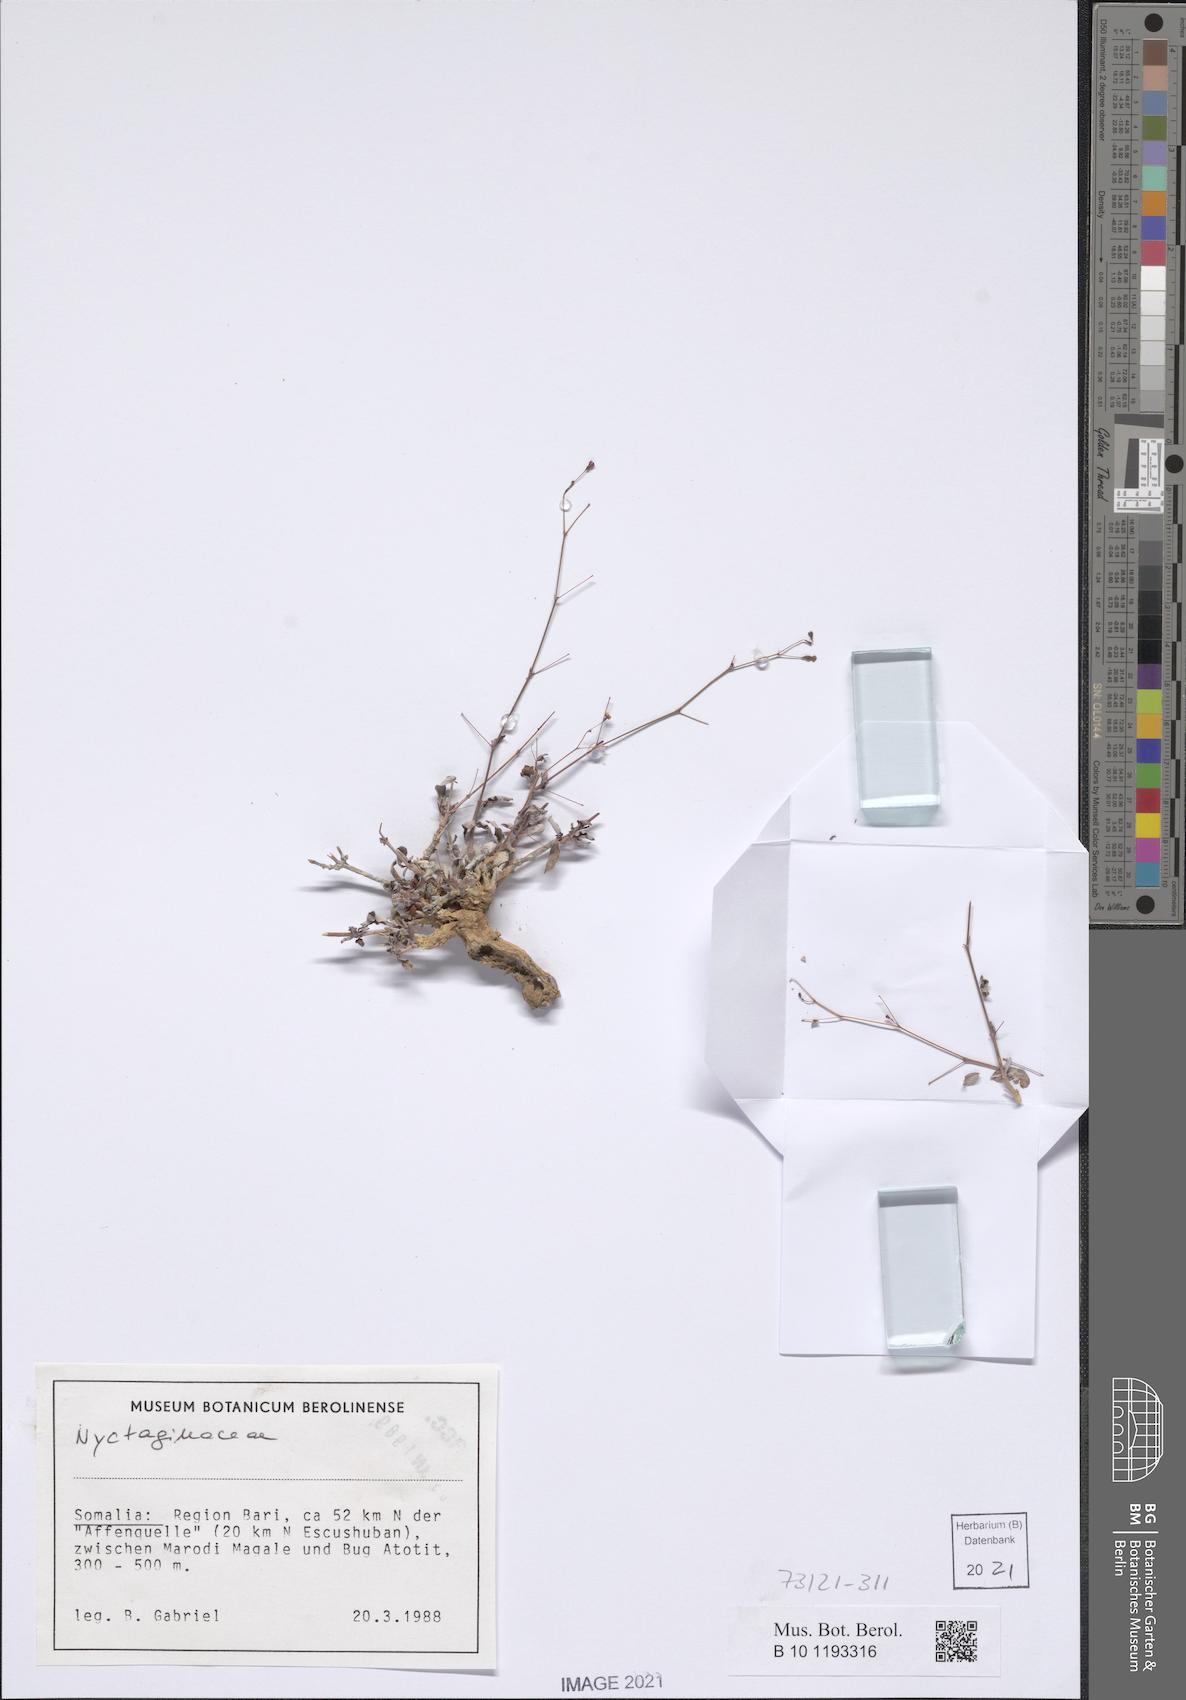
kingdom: Plantae
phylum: Tracheophyta
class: Magnoliopsida
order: Caryophyllales
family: Nyctaginaceae
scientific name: Nyctaginaceae
